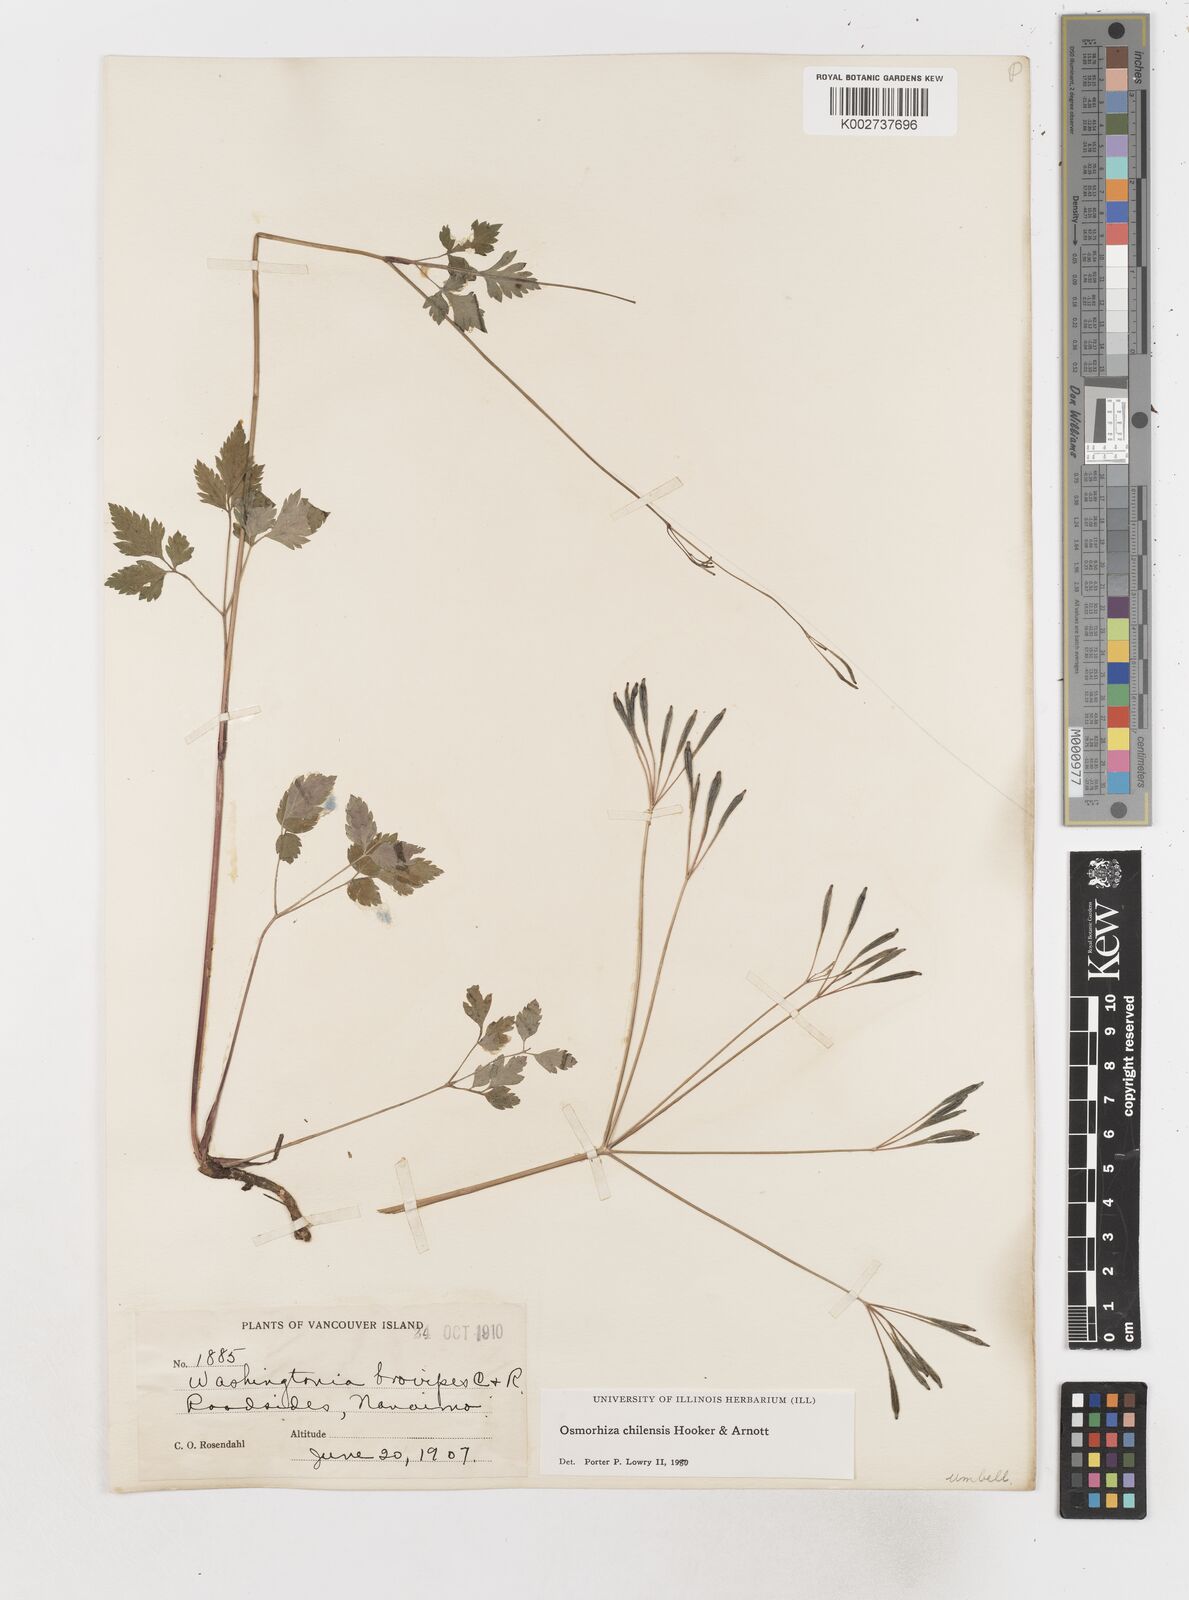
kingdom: Plantae
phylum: Tracheophyta
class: Magnoliopsida
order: Apiales
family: Apiaceae
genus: Osmorhiza
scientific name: Osmorhiza berteroi
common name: Mountain sweet cicely
